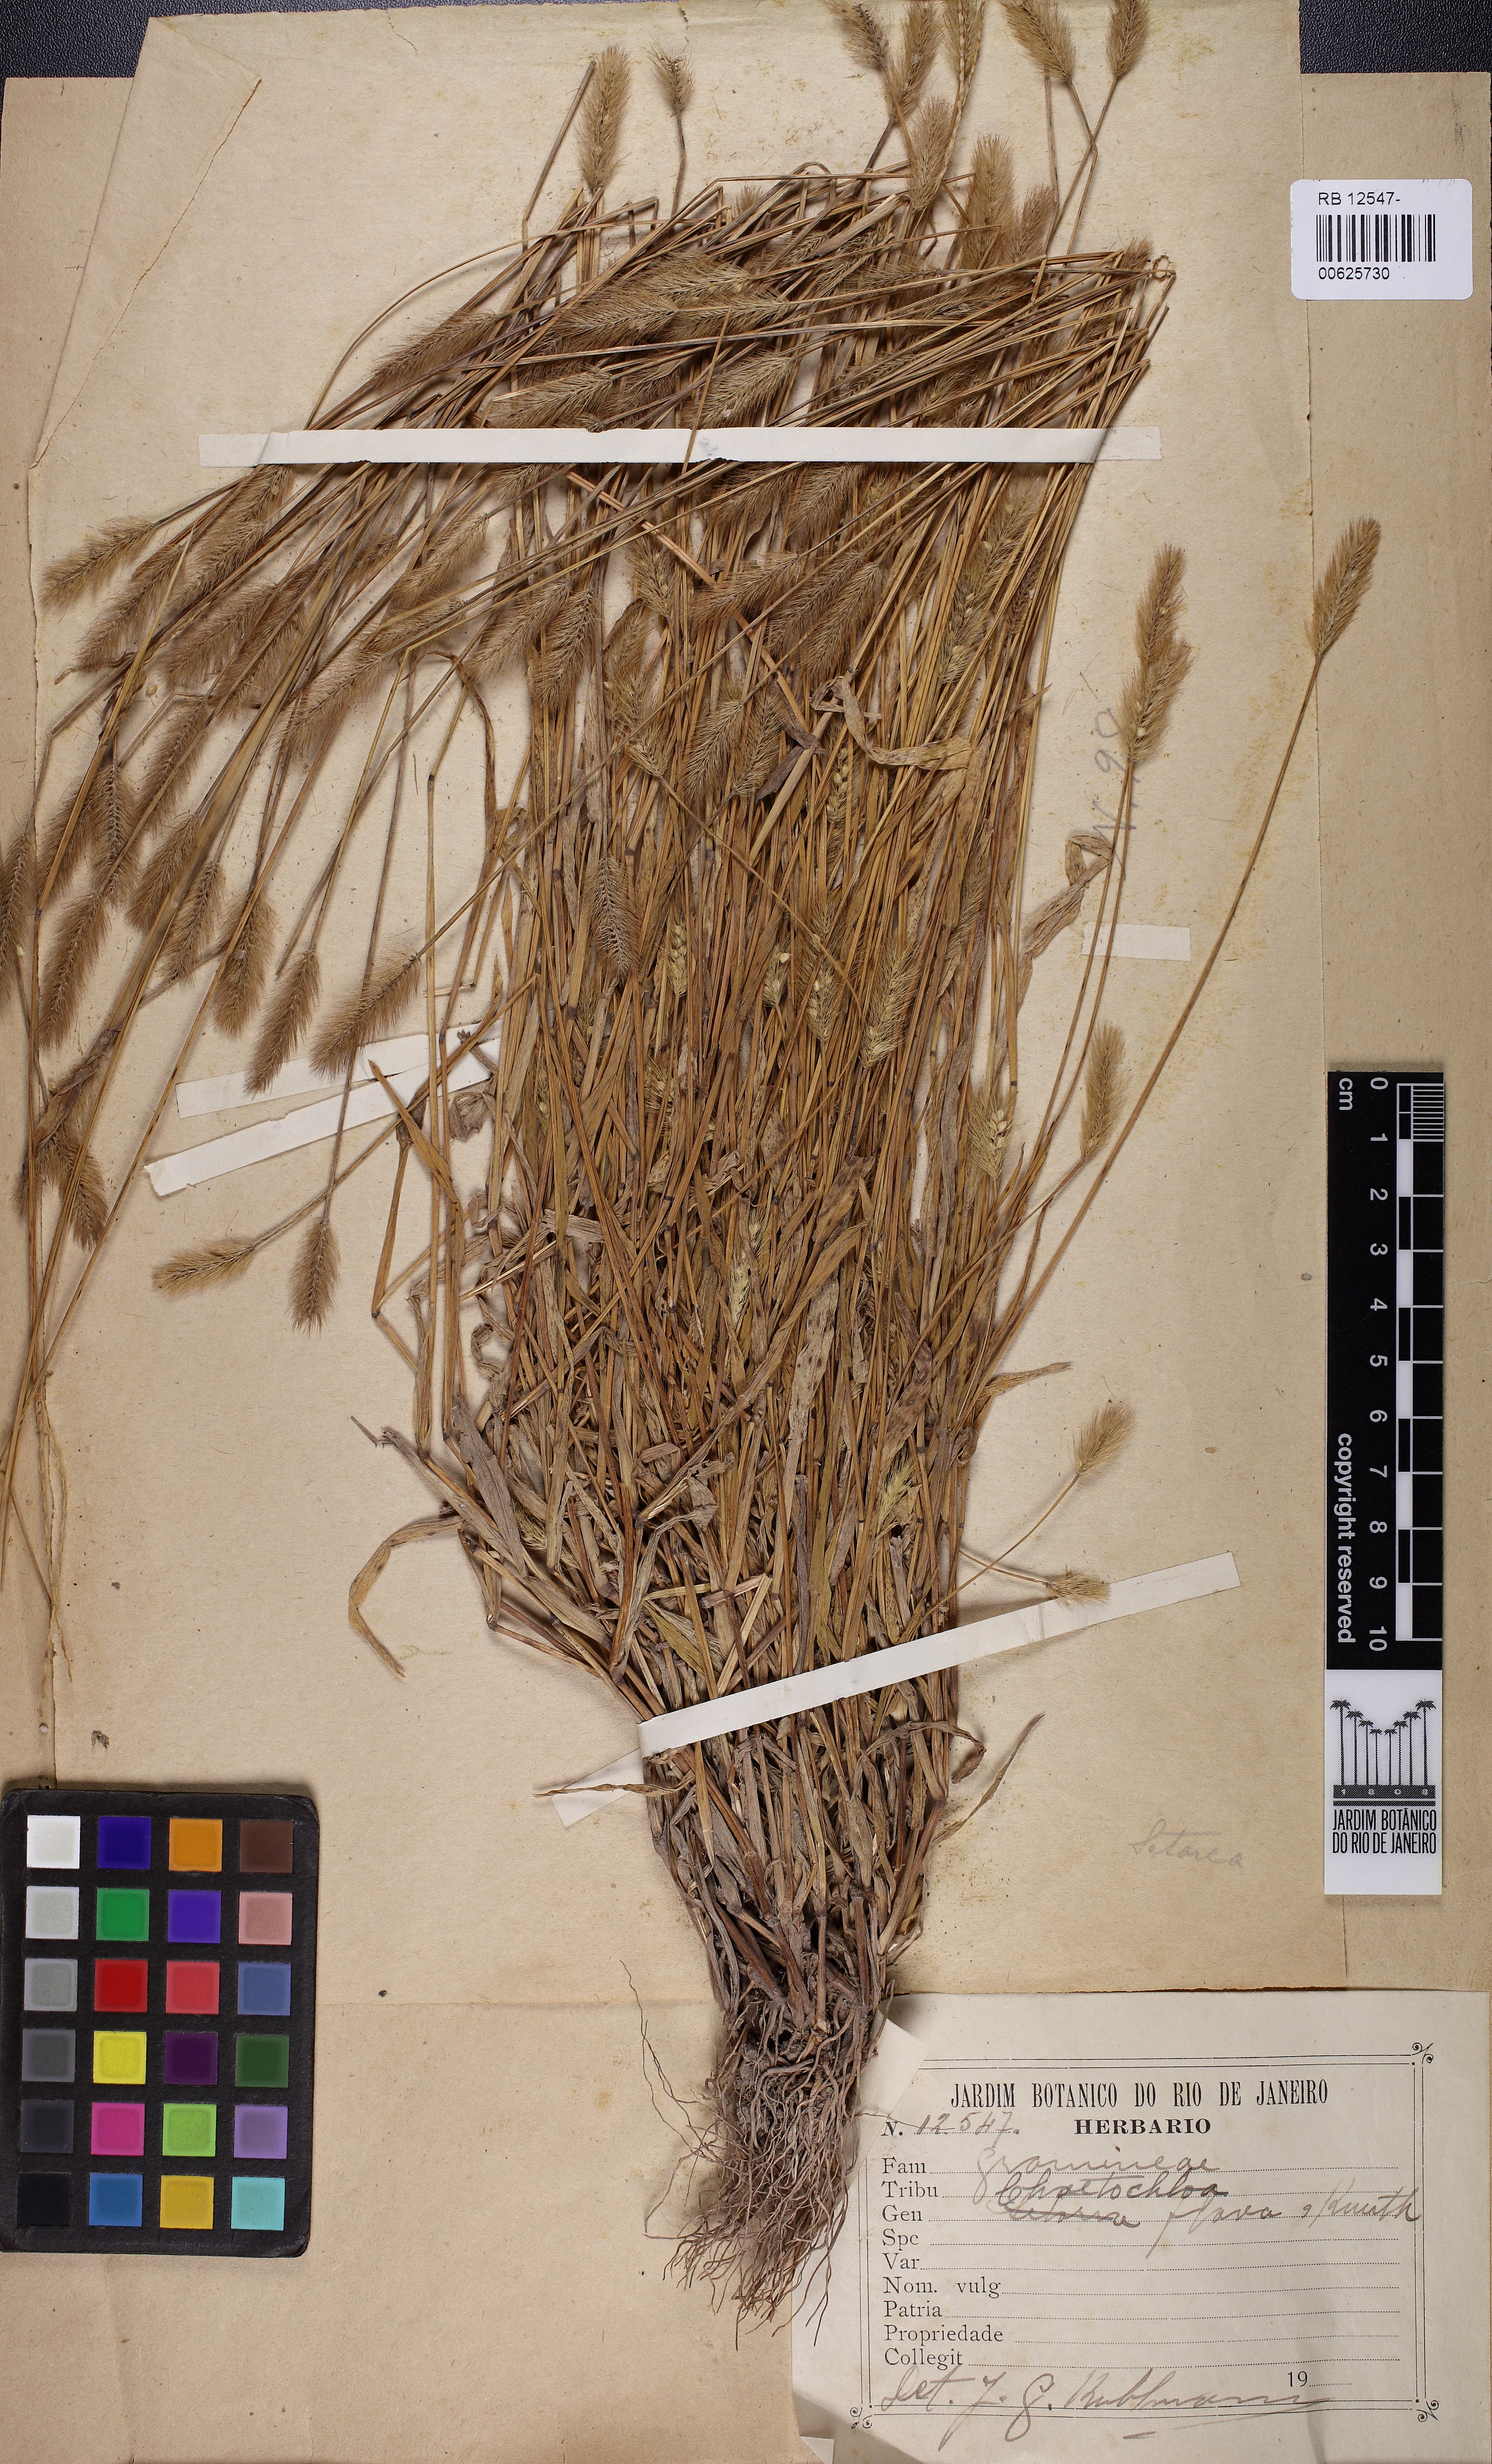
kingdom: Plantae
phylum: Tracheophyta
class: Liliopsida
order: Poales
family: Poaceae
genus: Setaria
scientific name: Setaria parviflora
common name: Knotroot bristle-grass
